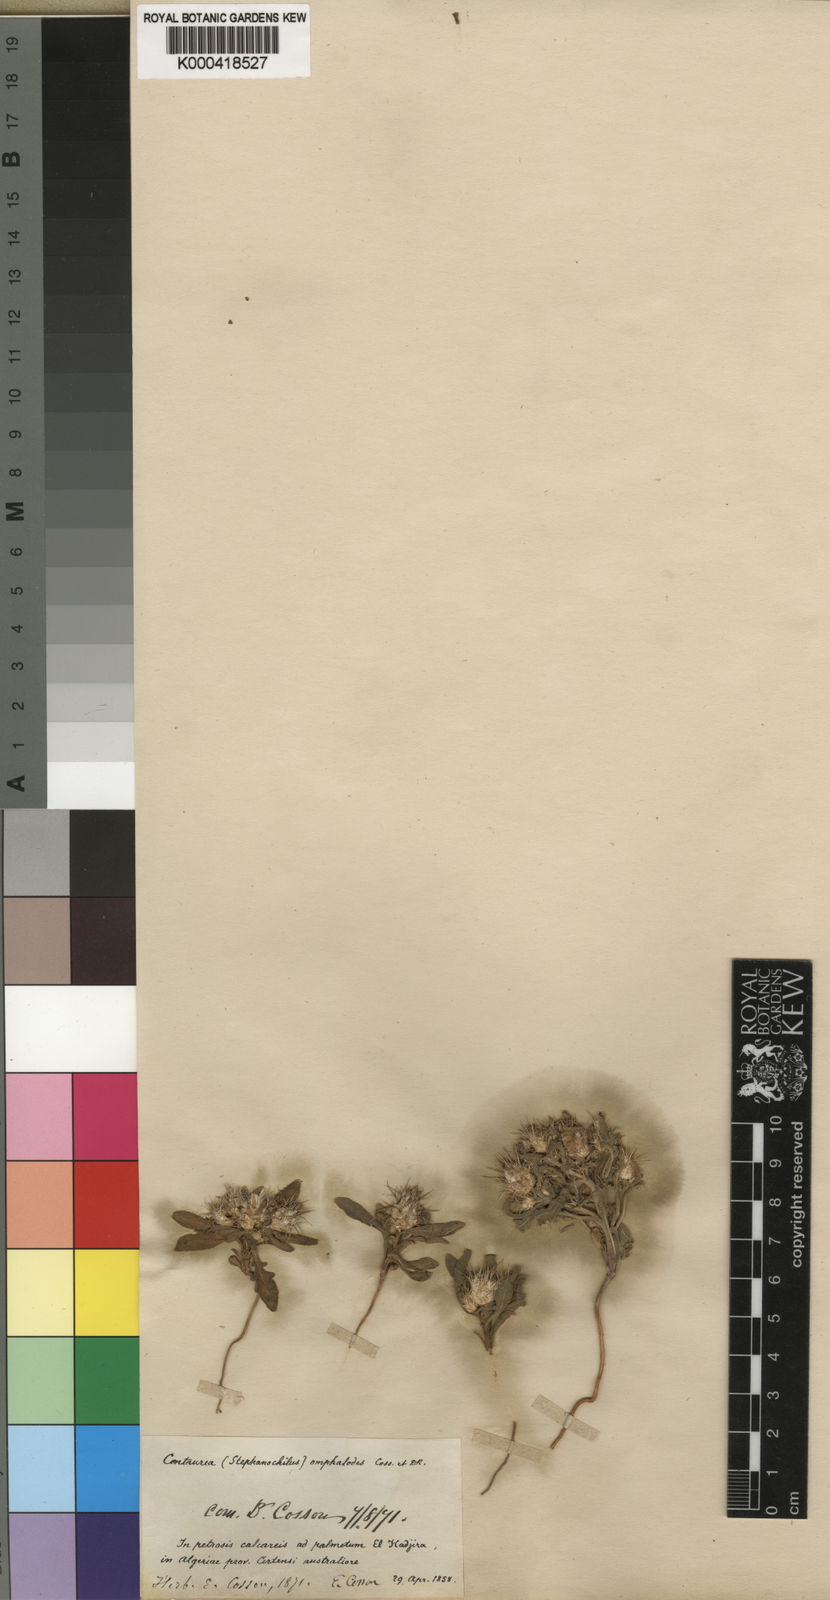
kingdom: Plantae
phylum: Tracheophyta
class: Magnoliopsida
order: Asterales
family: Asteraceae
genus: Centaurea
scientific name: Centaurea
